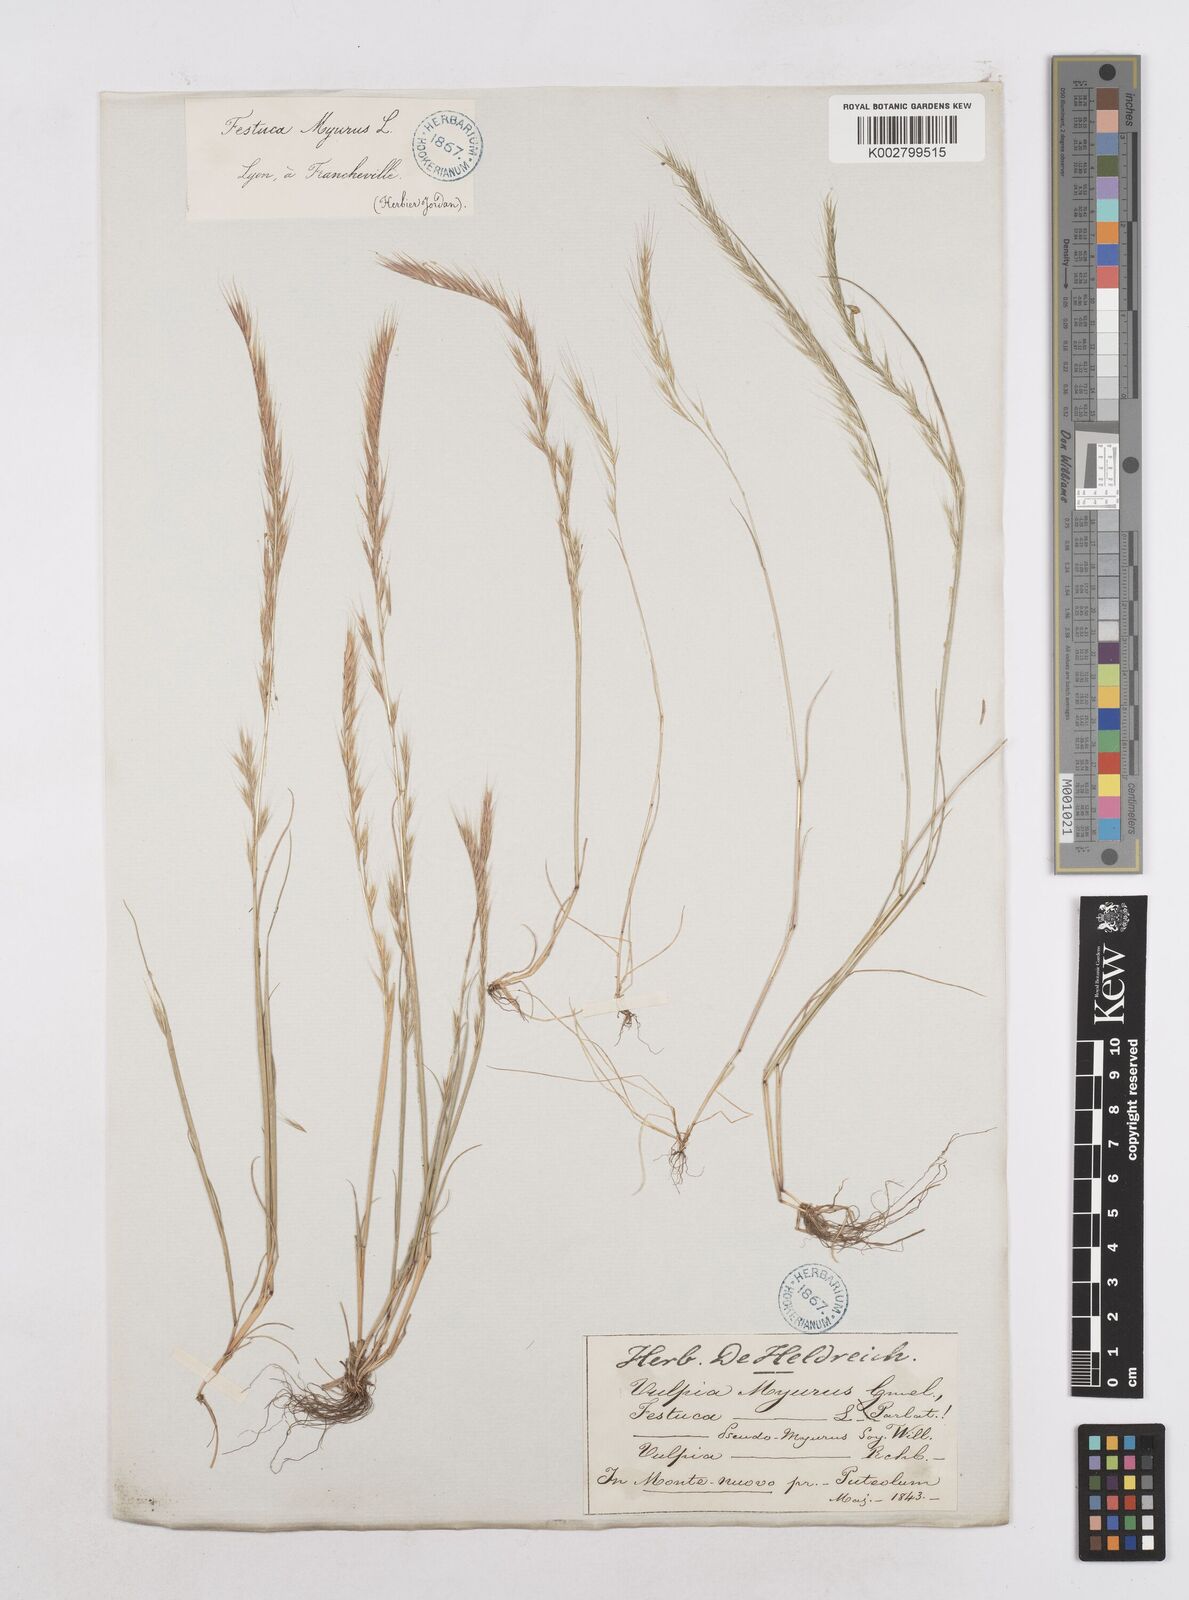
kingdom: Plantae
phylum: Tracheophyta
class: Liliopsida
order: Poales
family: Poaceae
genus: Festuca
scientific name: Festuca myuros
